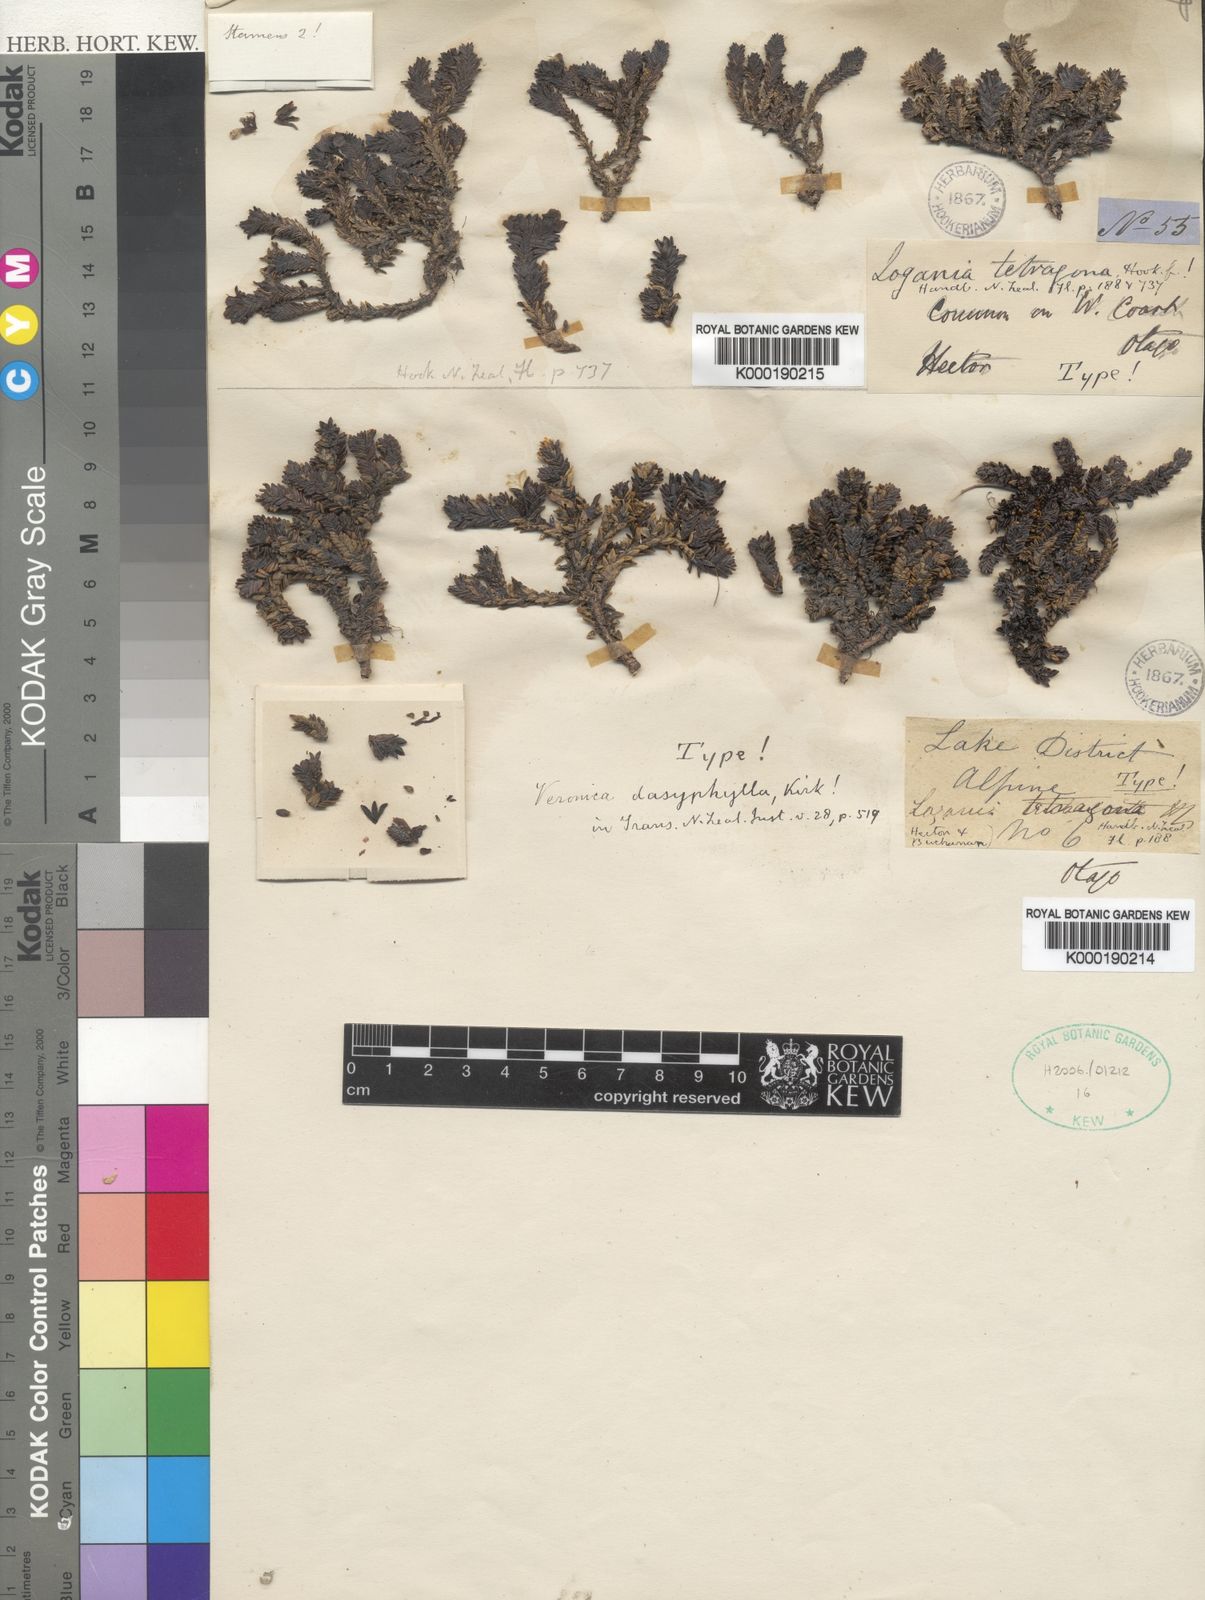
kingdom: Plantae
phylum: Tracheophyta
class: Magnoliopsida
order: Lamiales
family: Plantaginaceae
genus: Veronica
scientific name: Veronica
